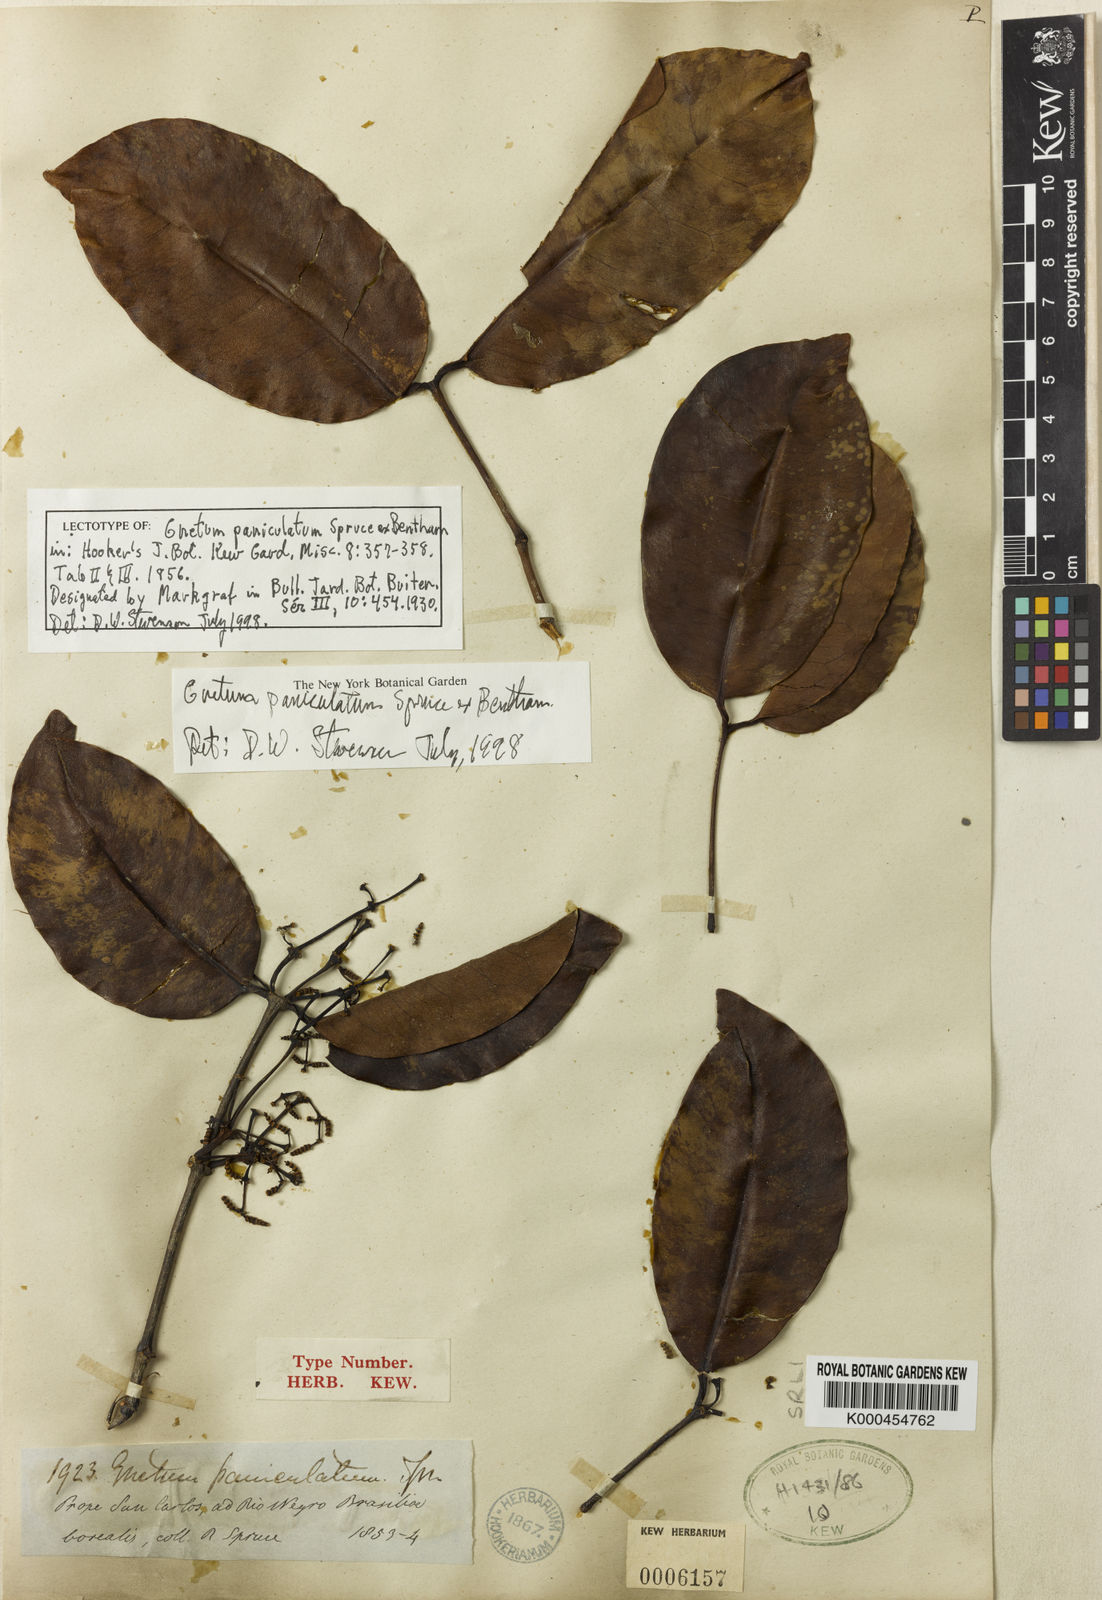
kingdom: Plantae
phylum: Tracheophyta
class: Gnetopsida
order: Gnetales
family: Gnetaceae
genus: Gnetum
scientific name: Gnetum paniculatum
